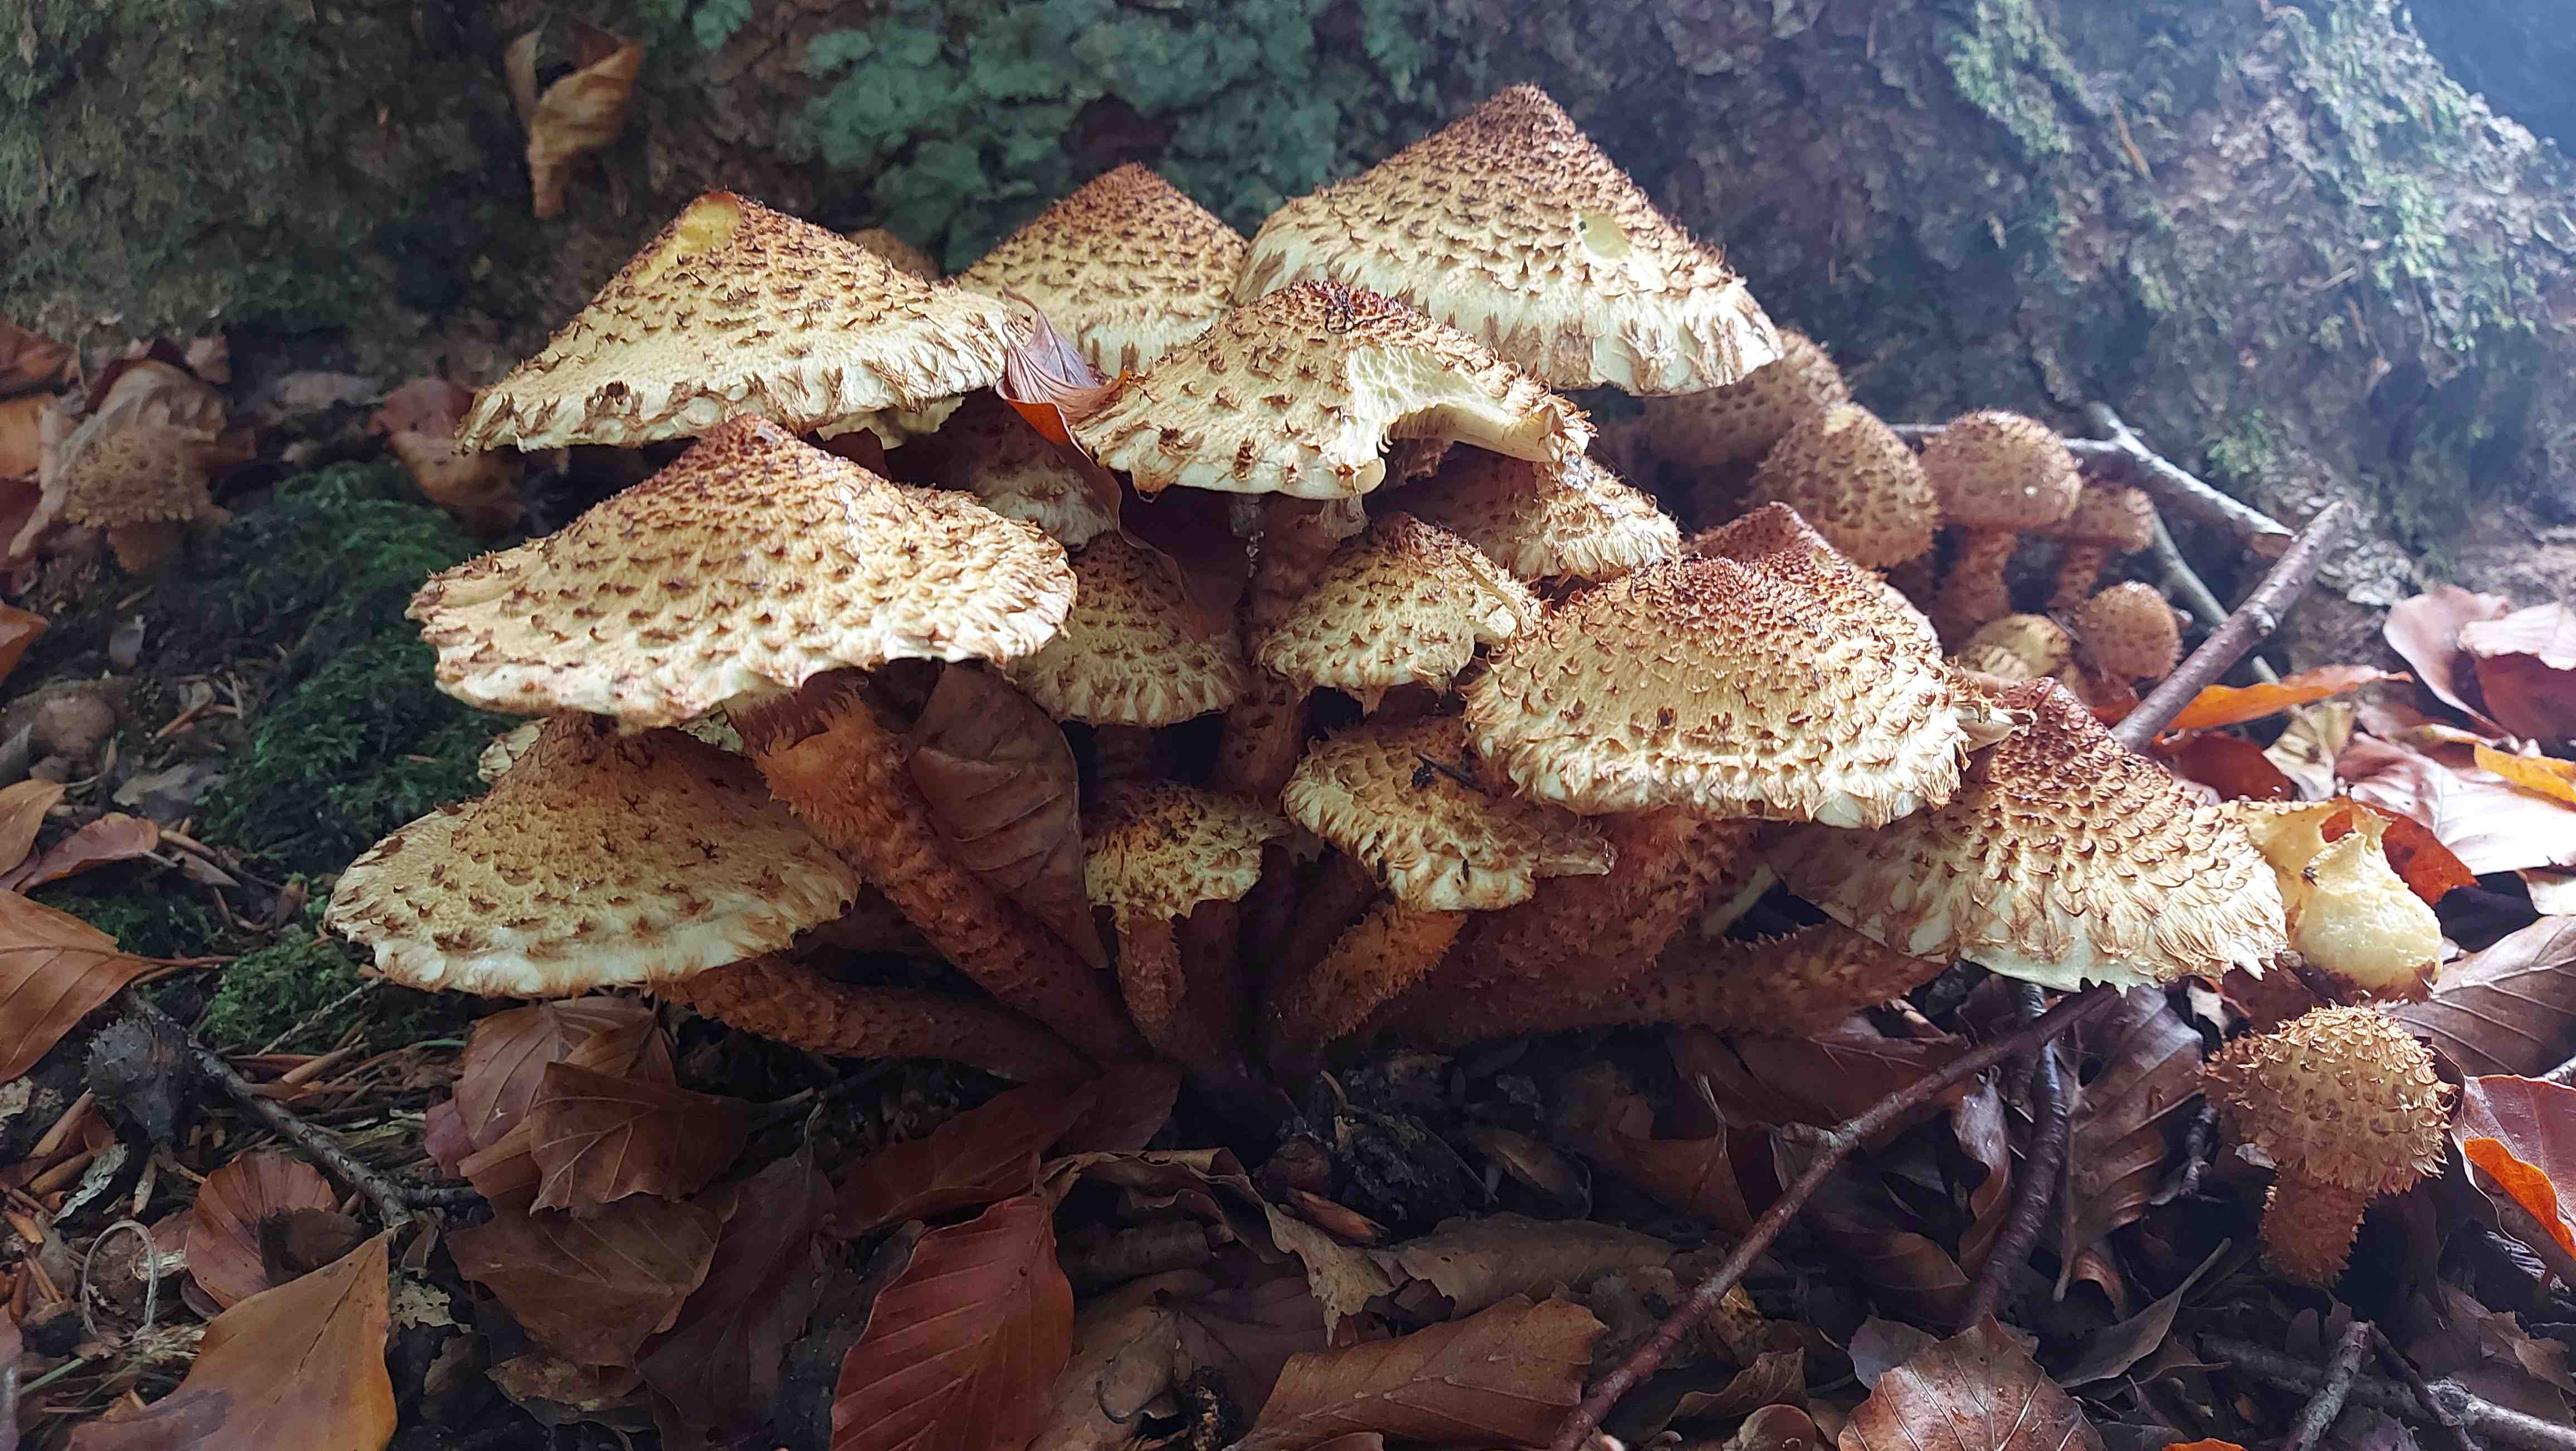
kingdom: Fungi
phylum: Basidiomycota
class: Agaricomycetes
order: Agaricales
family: Strophariaceae
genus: Pholiota
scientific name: Pholiota squarrosa
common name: krumskællet skælhat
